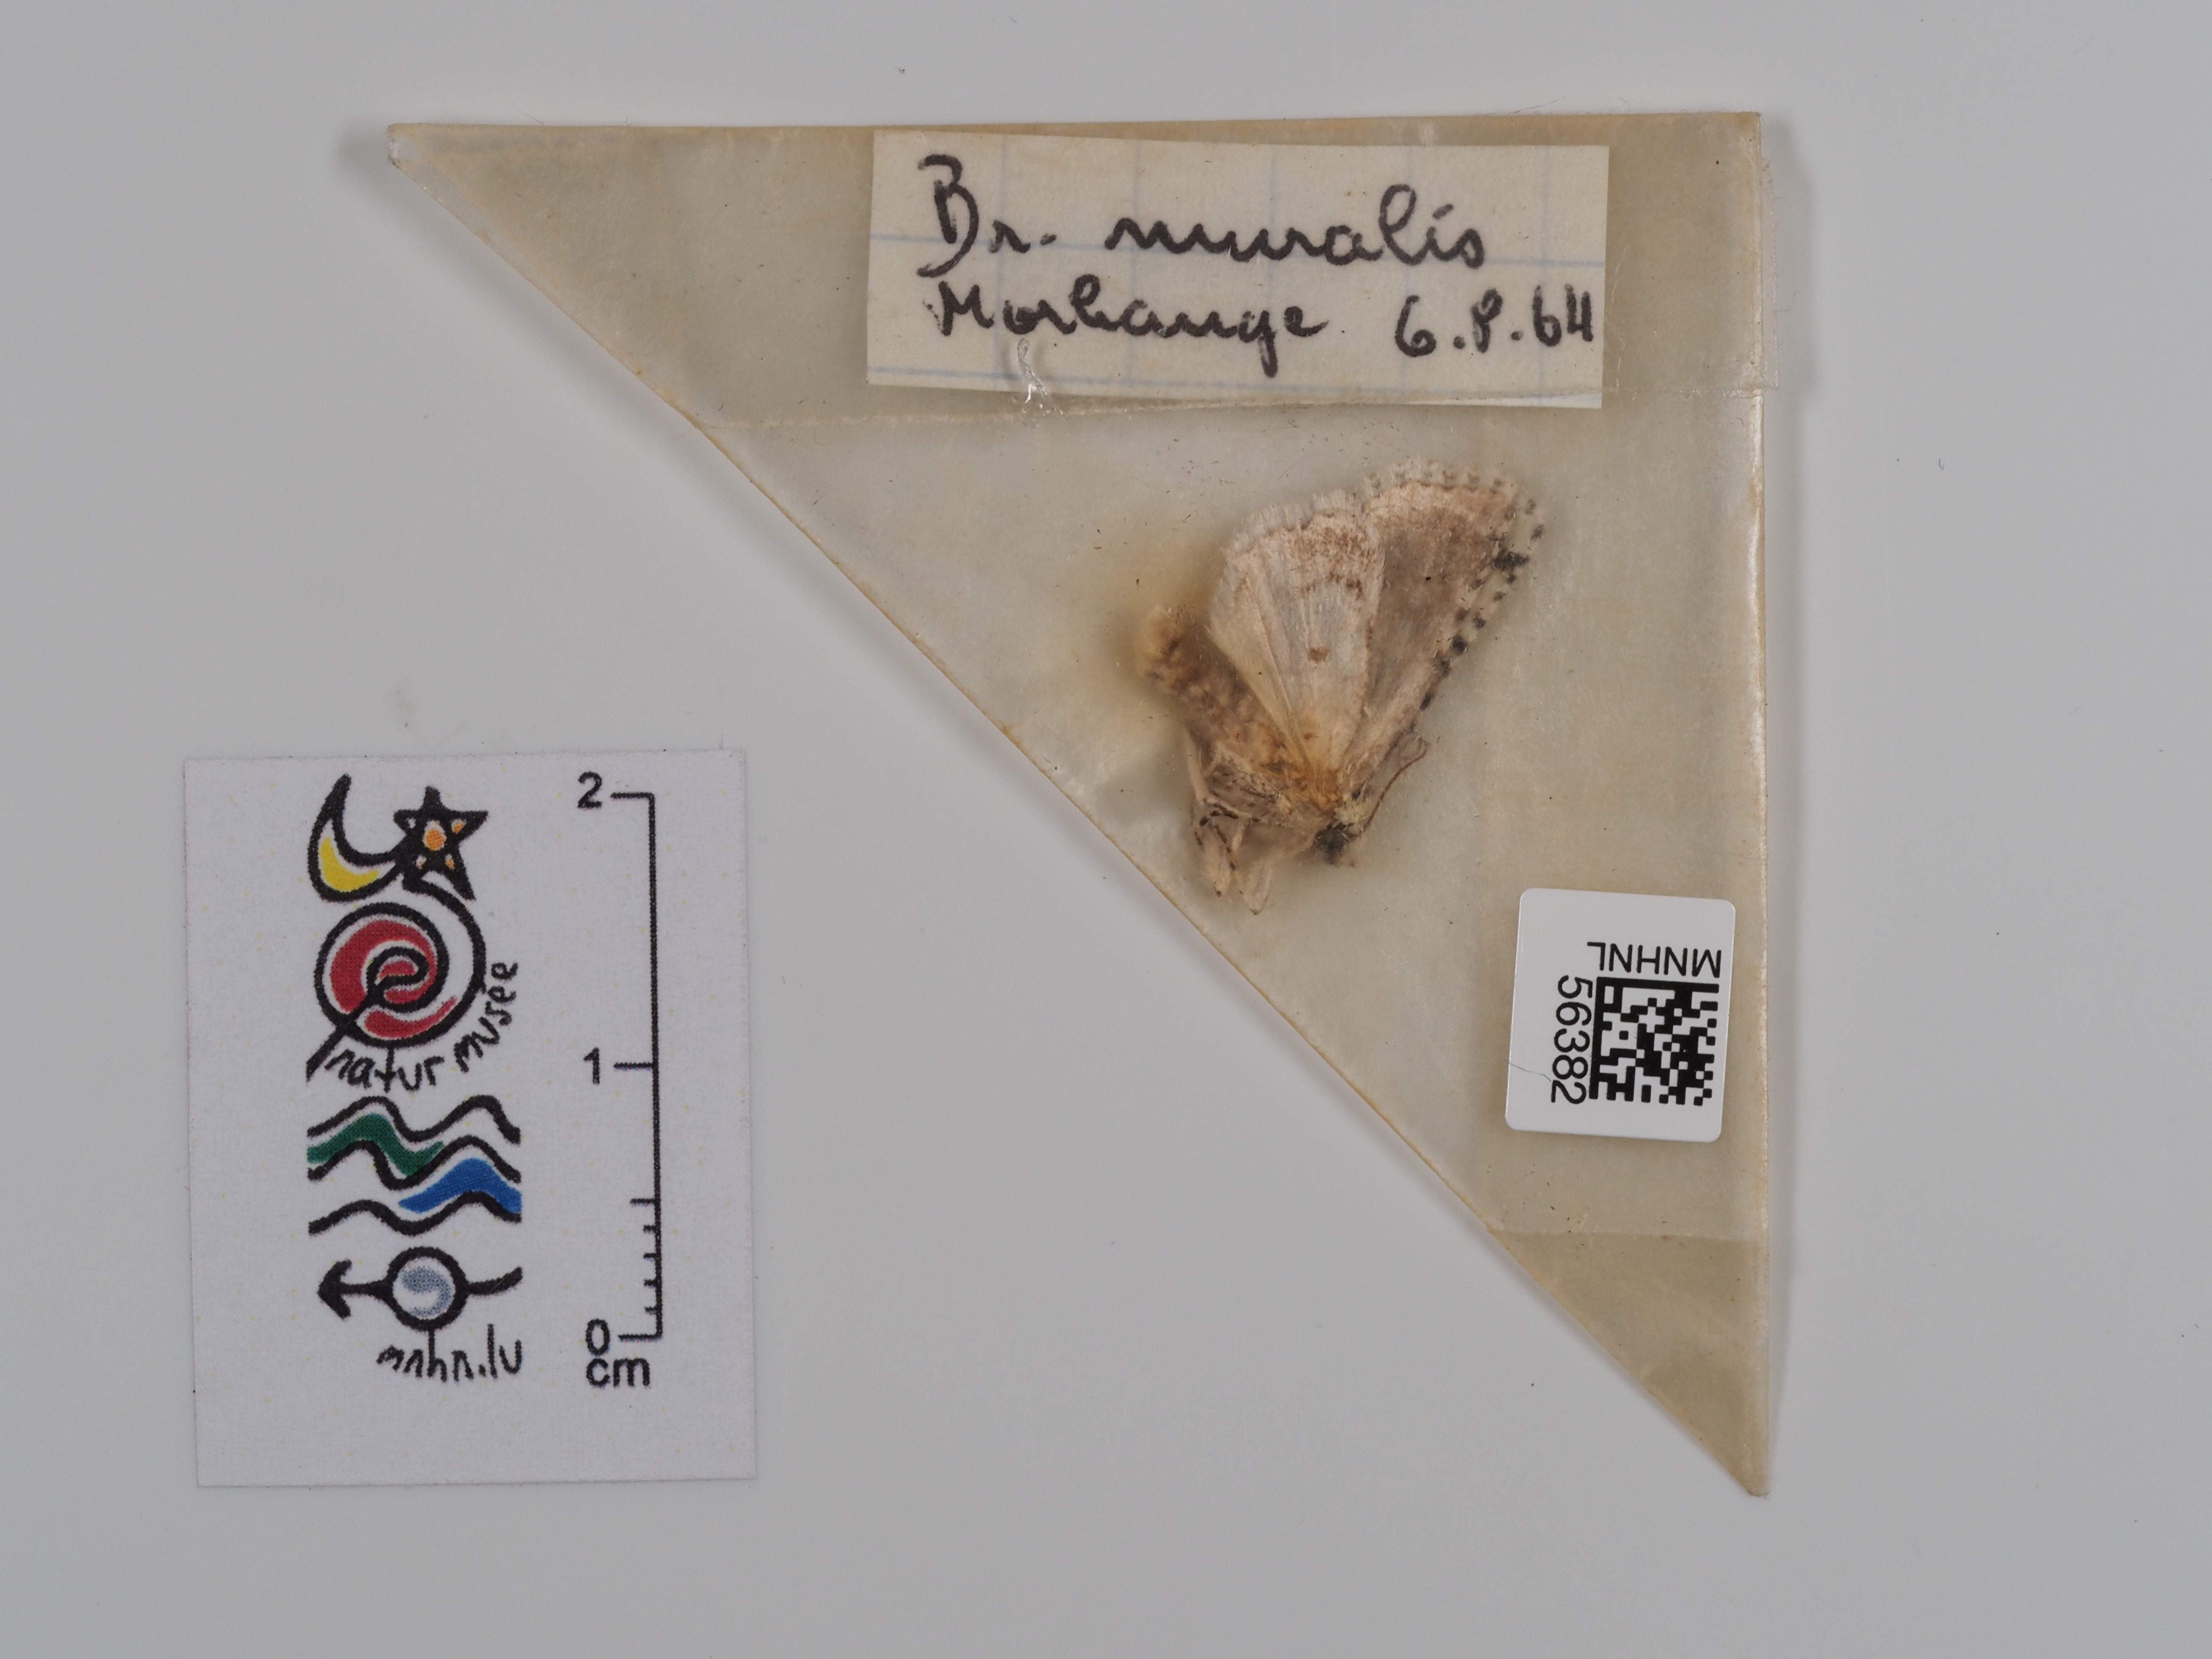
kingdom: Animalia
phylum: Arthropoda
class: Insecta
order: Lepidoptera
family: Noctuidae
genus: Nyctobrya
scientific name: Nyctobrya muralis
